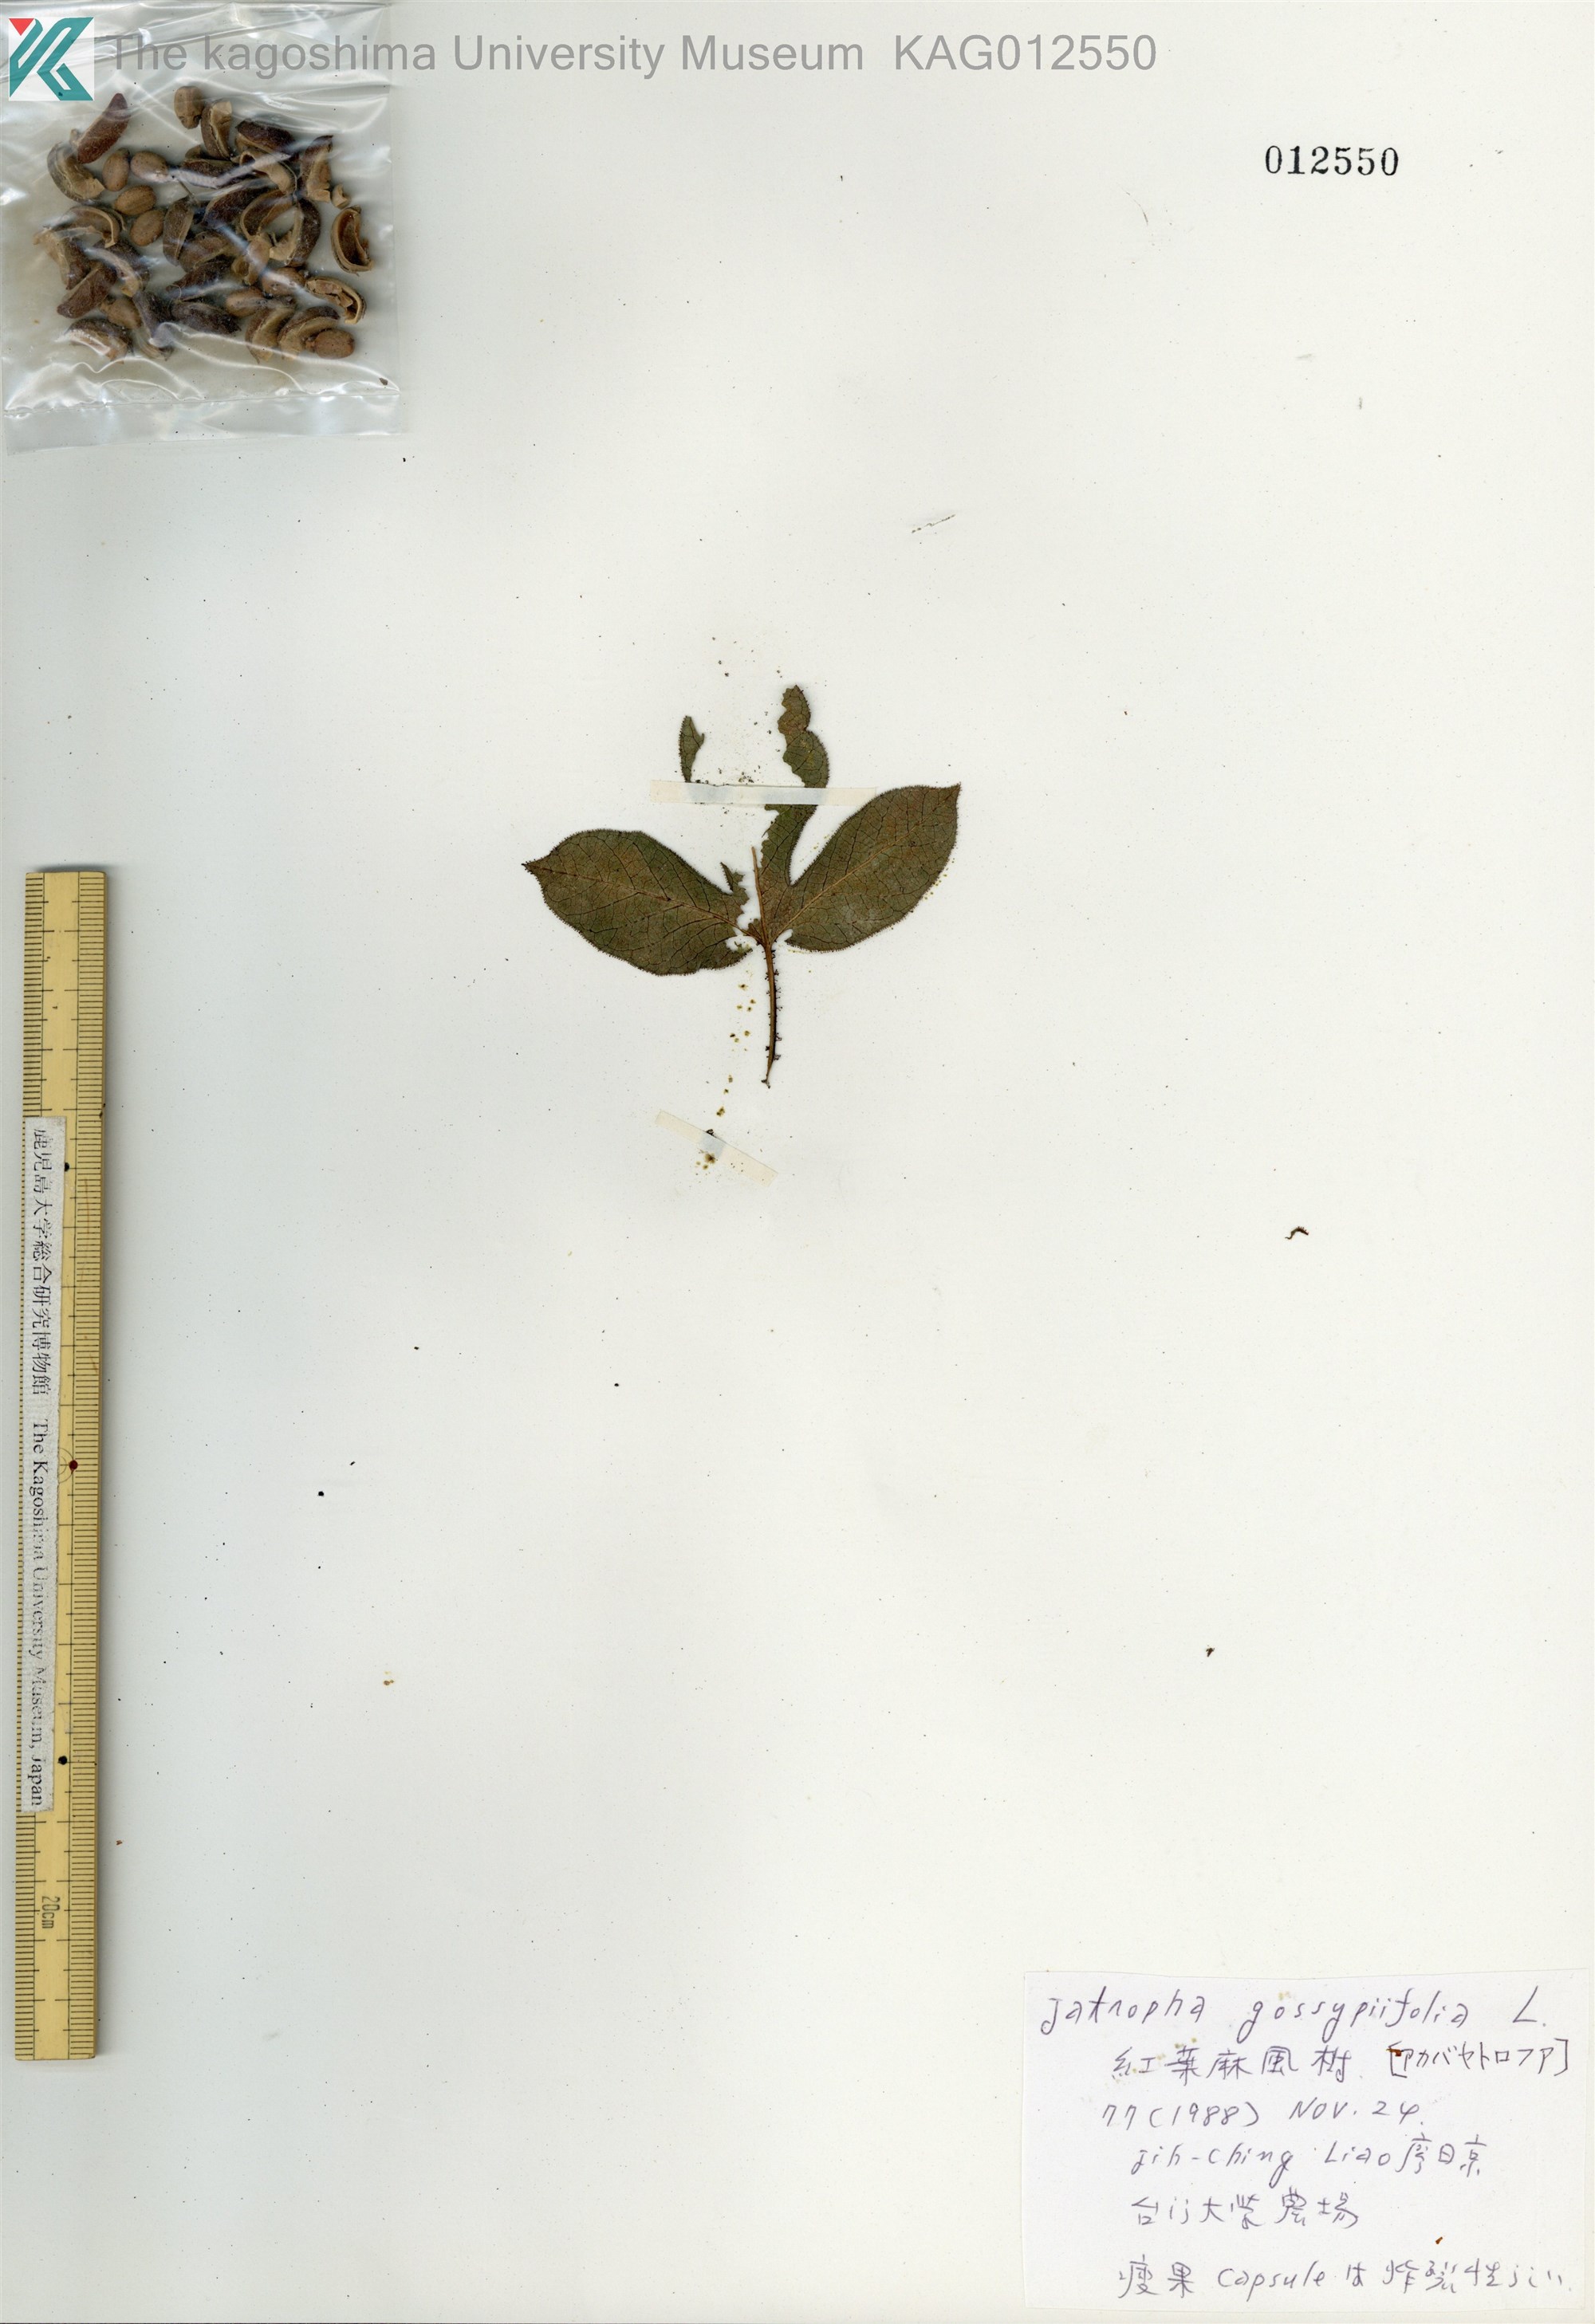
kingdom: Plantae
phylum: Tracheophyta
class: Magnoliopsida
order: Malpighiales
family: Euphorbiaceae
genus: Jatropha
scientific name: Jatropha gossypiifolia
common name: Bellyache bush
